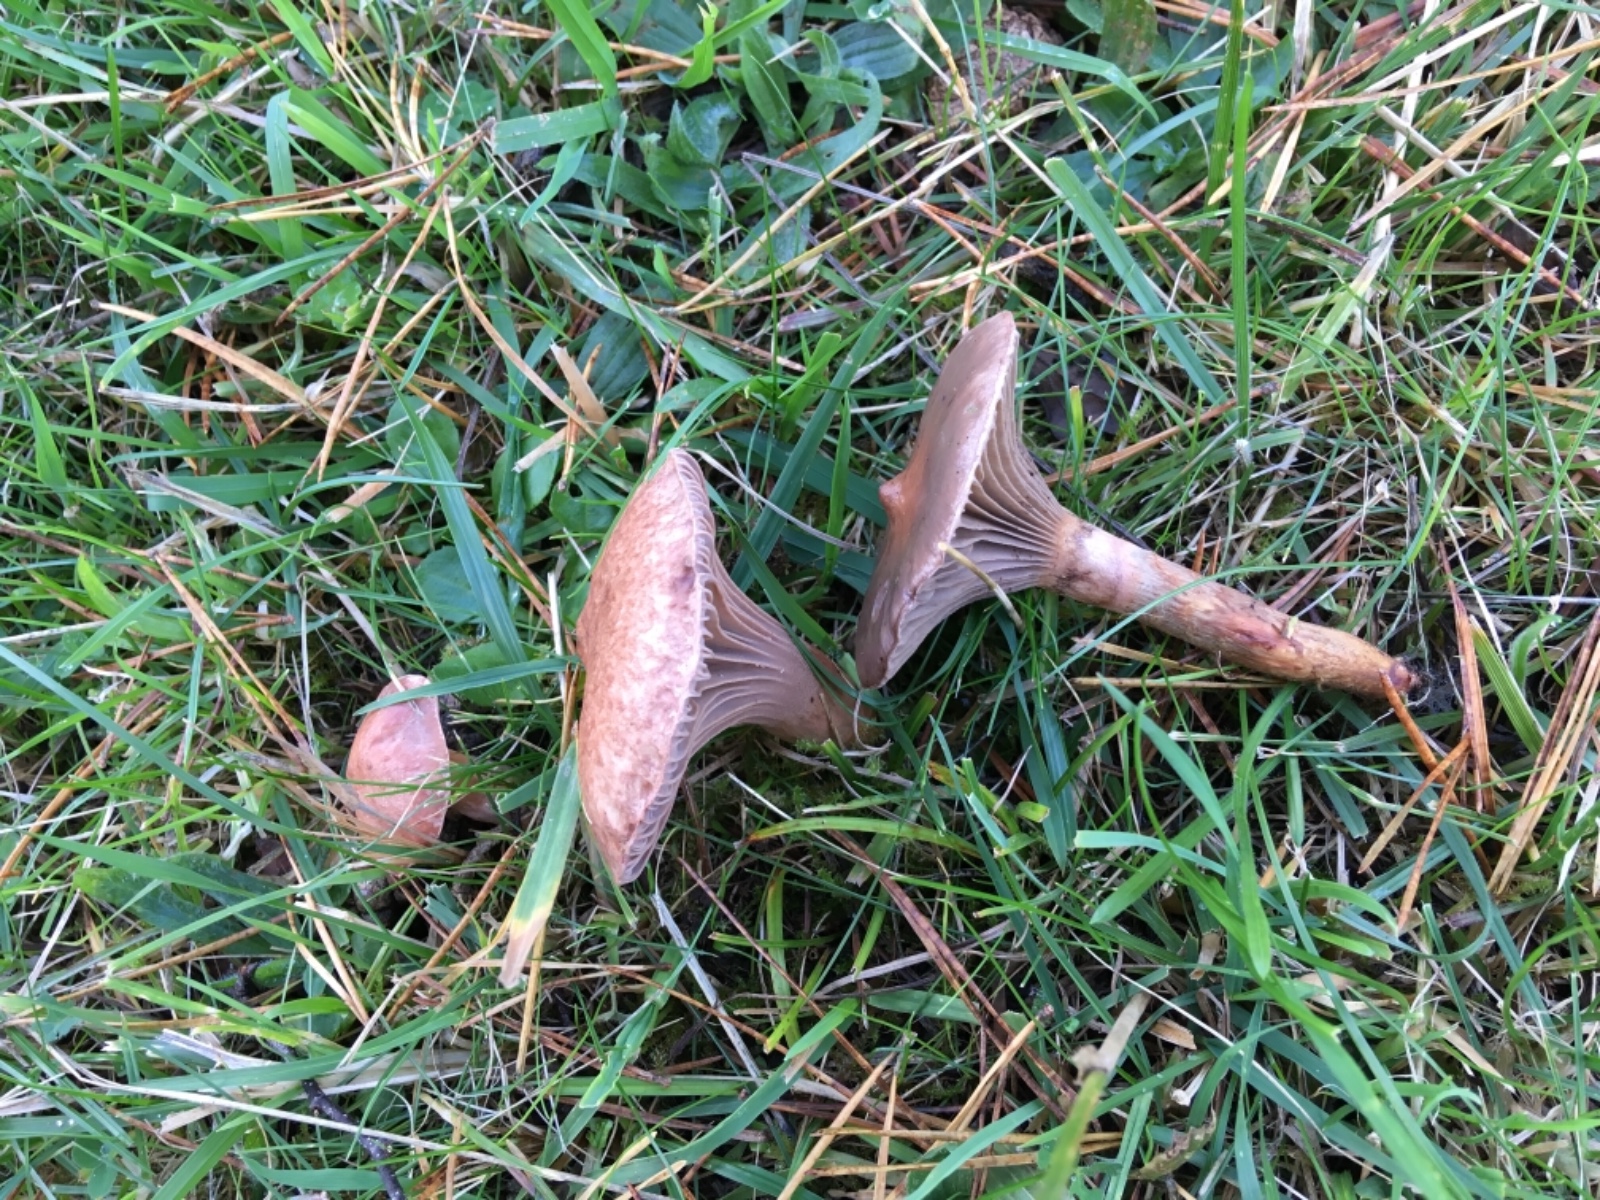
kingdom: Fungi
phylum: Basidiomycota
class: Agaricomycetes
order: Boletales
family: Gomphidiaceae
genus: Chroogomphus
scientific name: Chroogomphus rutilus
